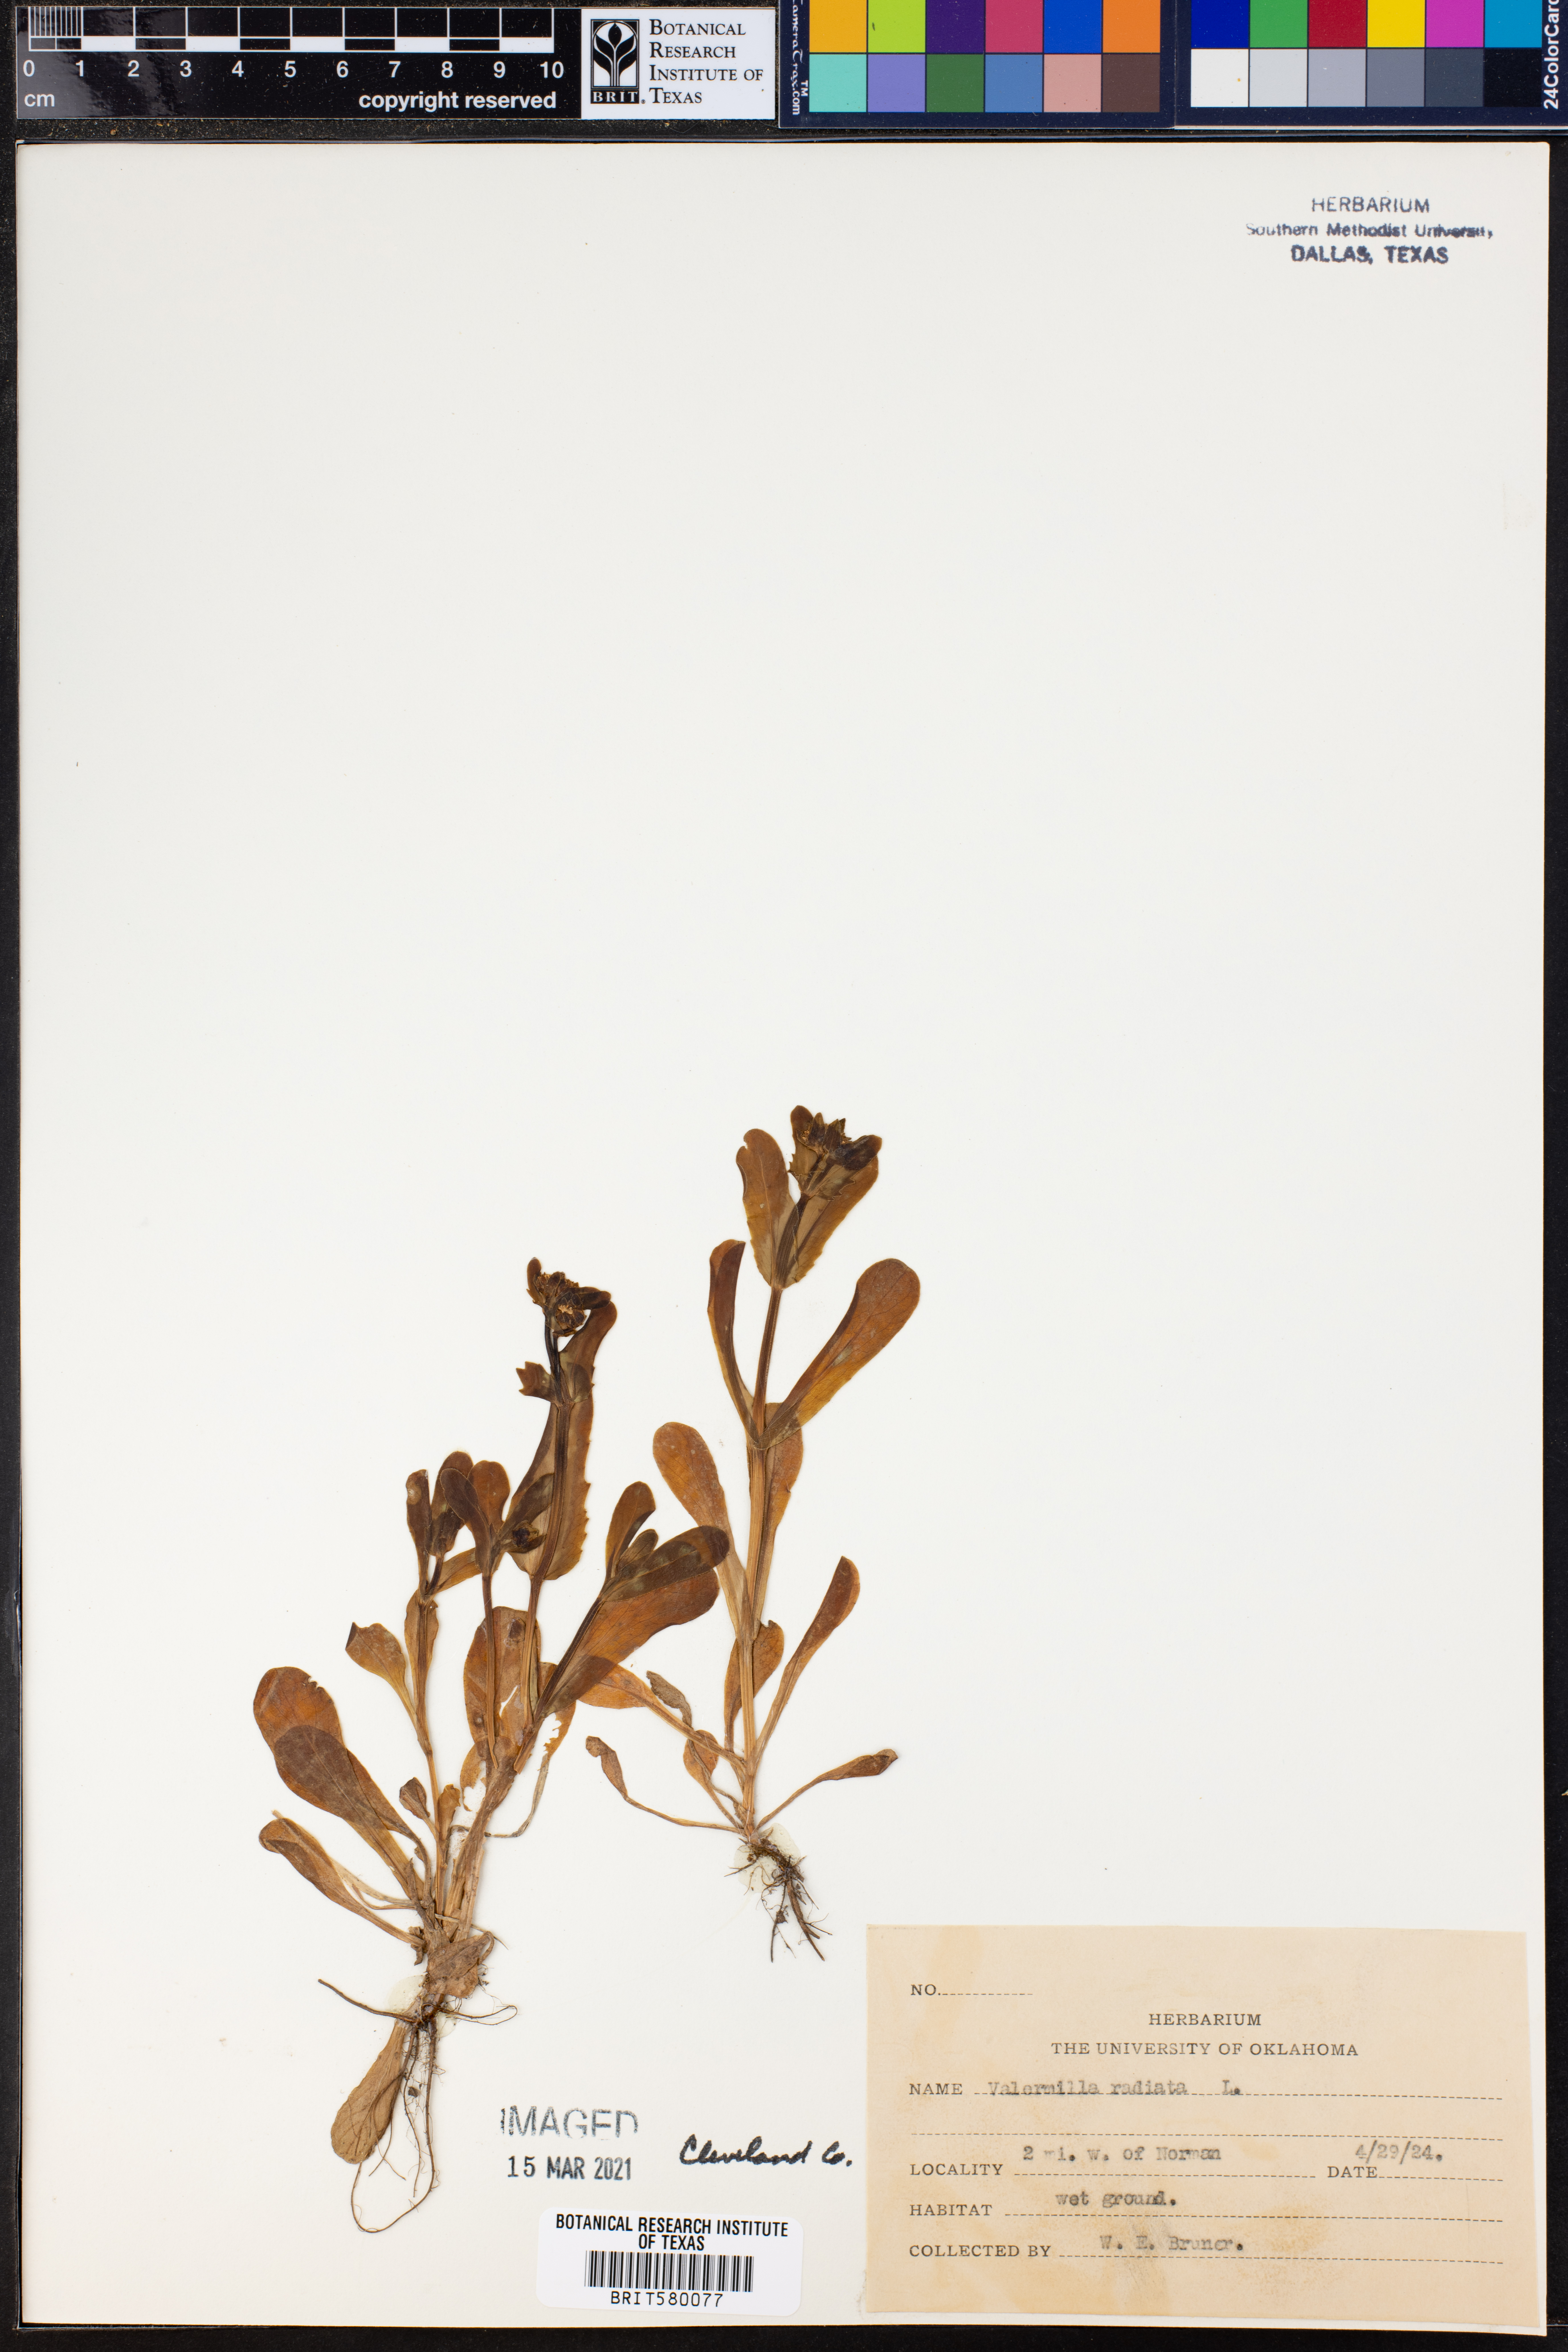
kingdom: Plantae
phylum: Tracheophyta
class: Magnoliopsida
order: Dipsacales
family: Caprifoliaceae
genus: Valerianella
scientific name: Valerianella radiata
